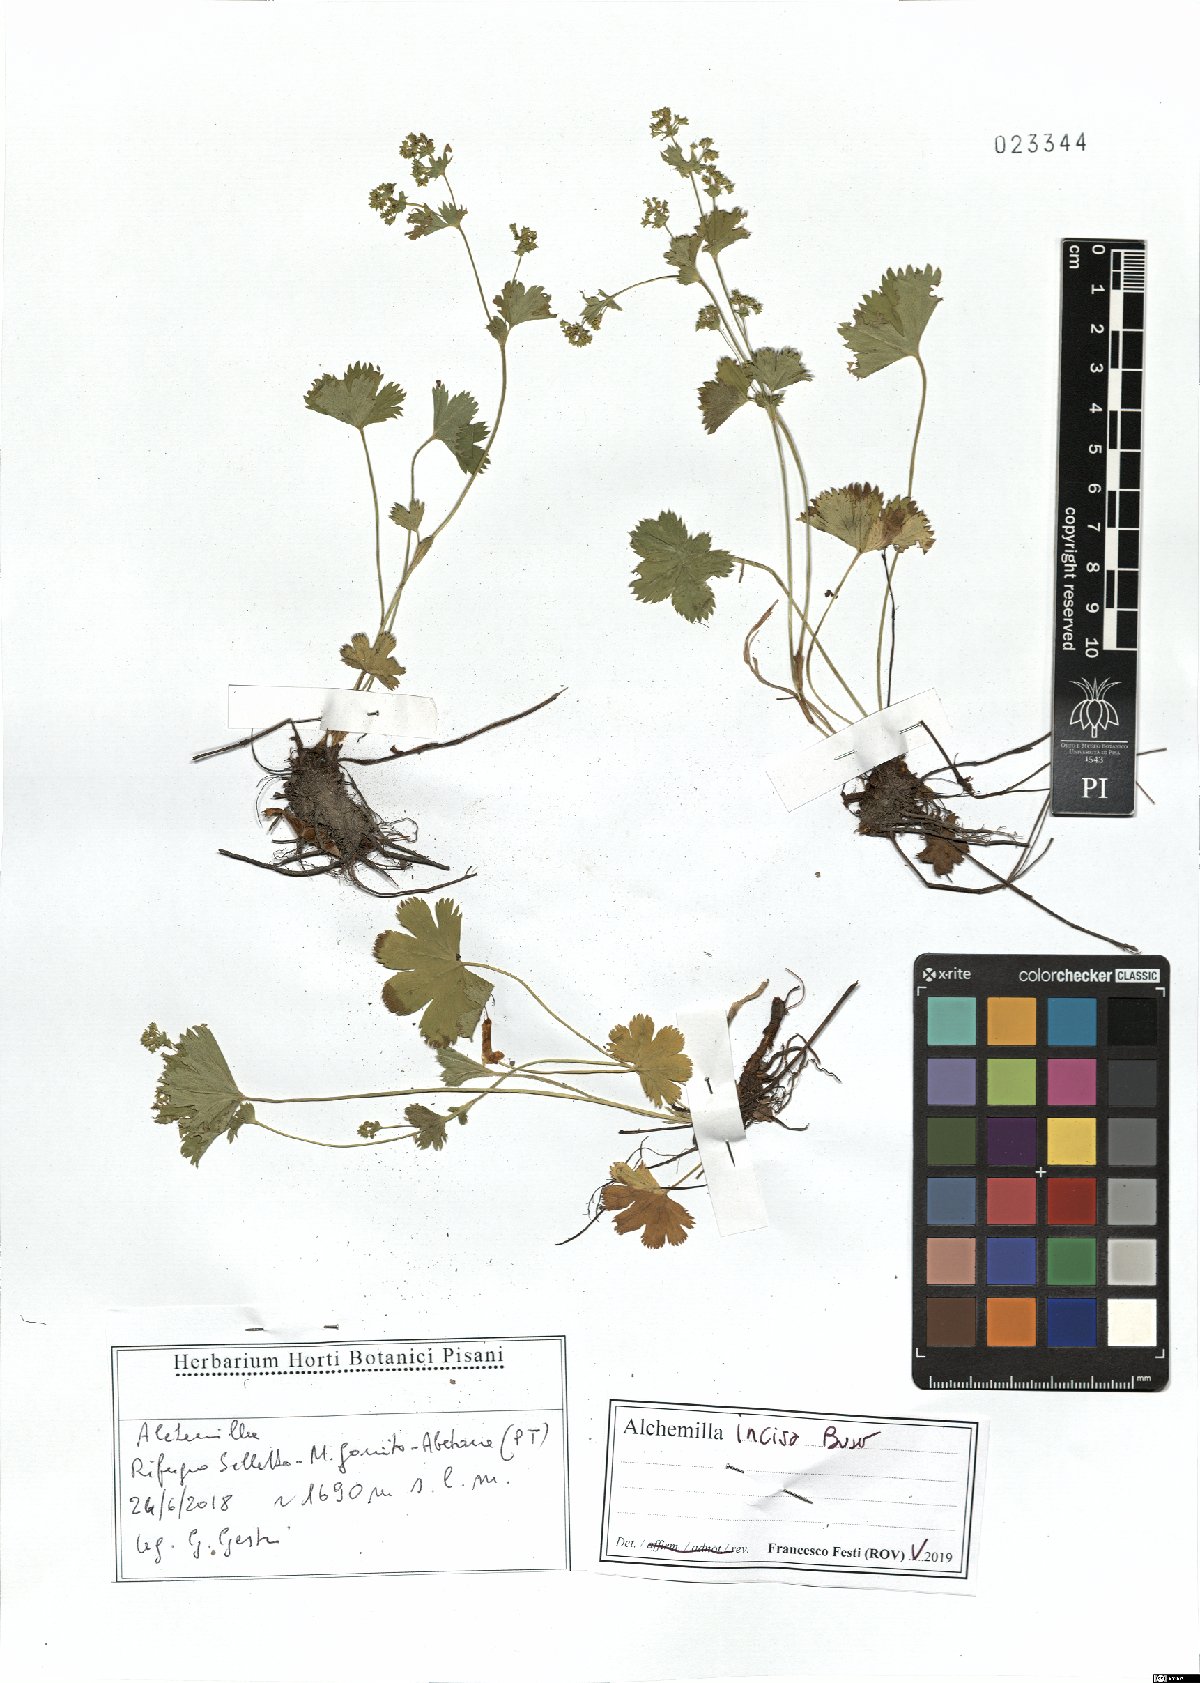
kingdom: Plantae
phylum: Tracheophyta
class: Magnoliopsida
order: Rosales
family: Rosaceae
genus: Alchemilla
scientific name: Alchemilla incisa
